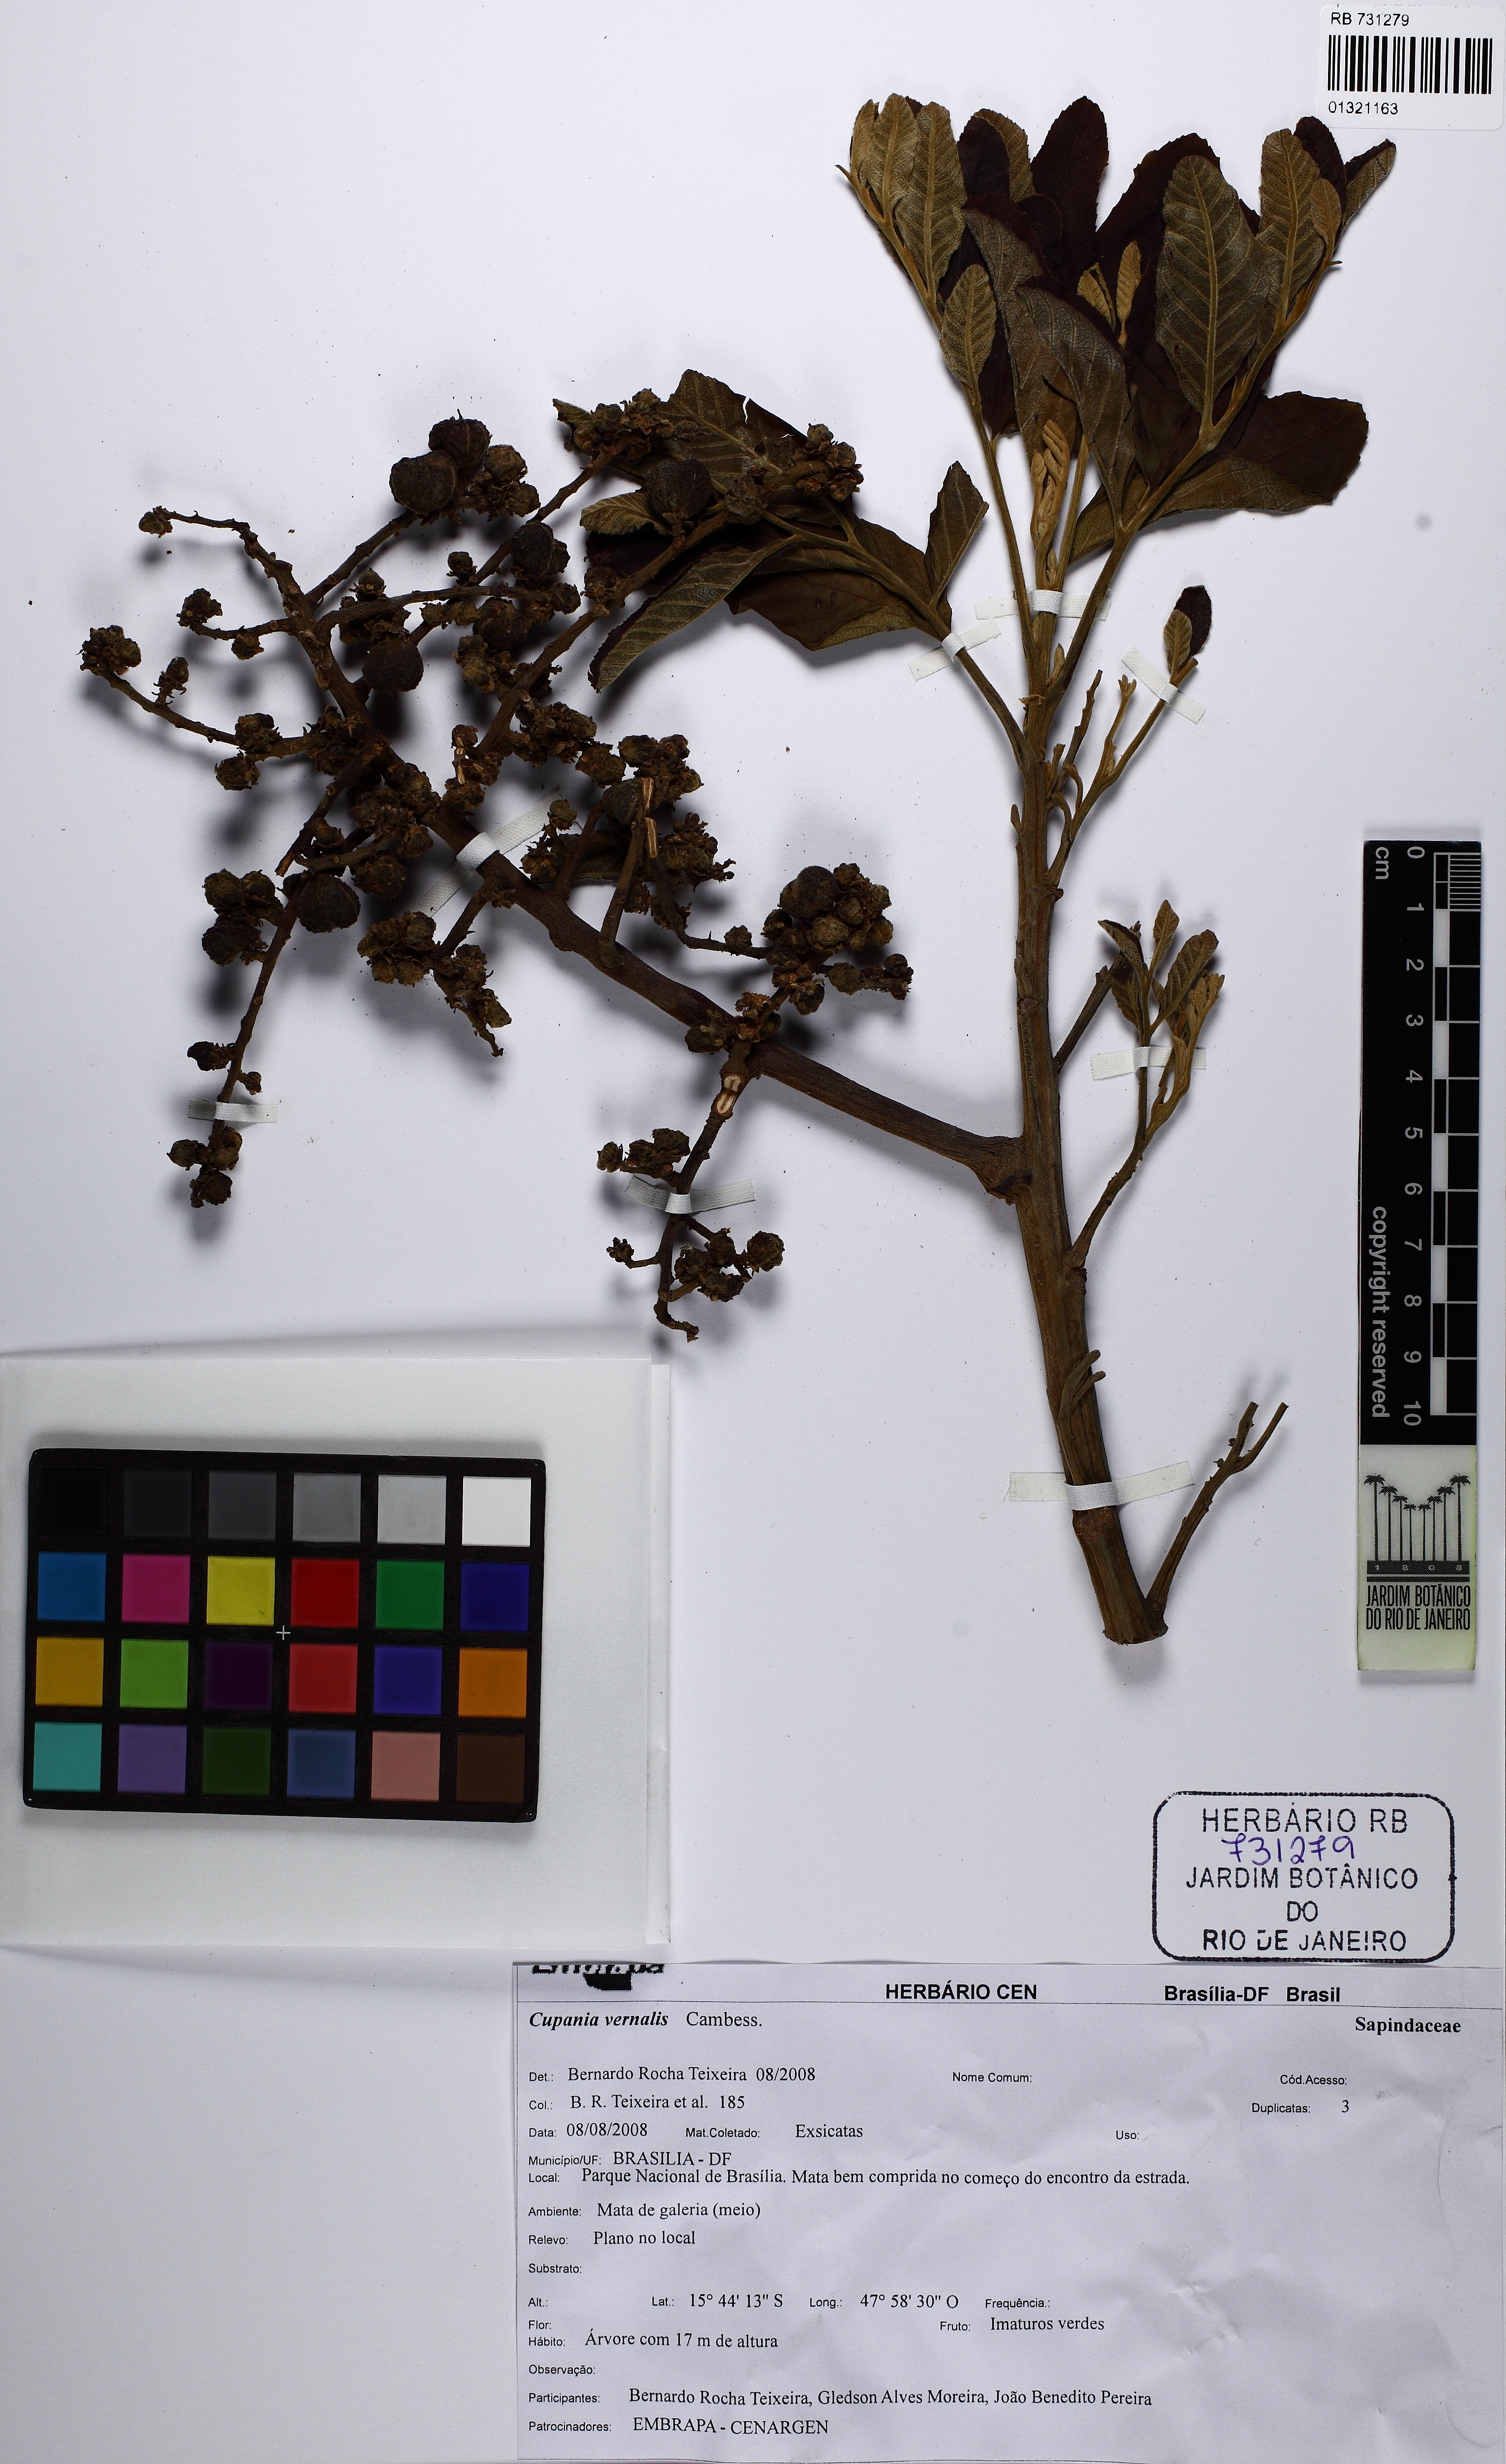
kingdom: Plantae
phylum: Tracheophyta
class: Magnoliopsida
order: Sapindales
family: Sapindaceae
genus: Cupania
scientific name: Cupania vernalis
